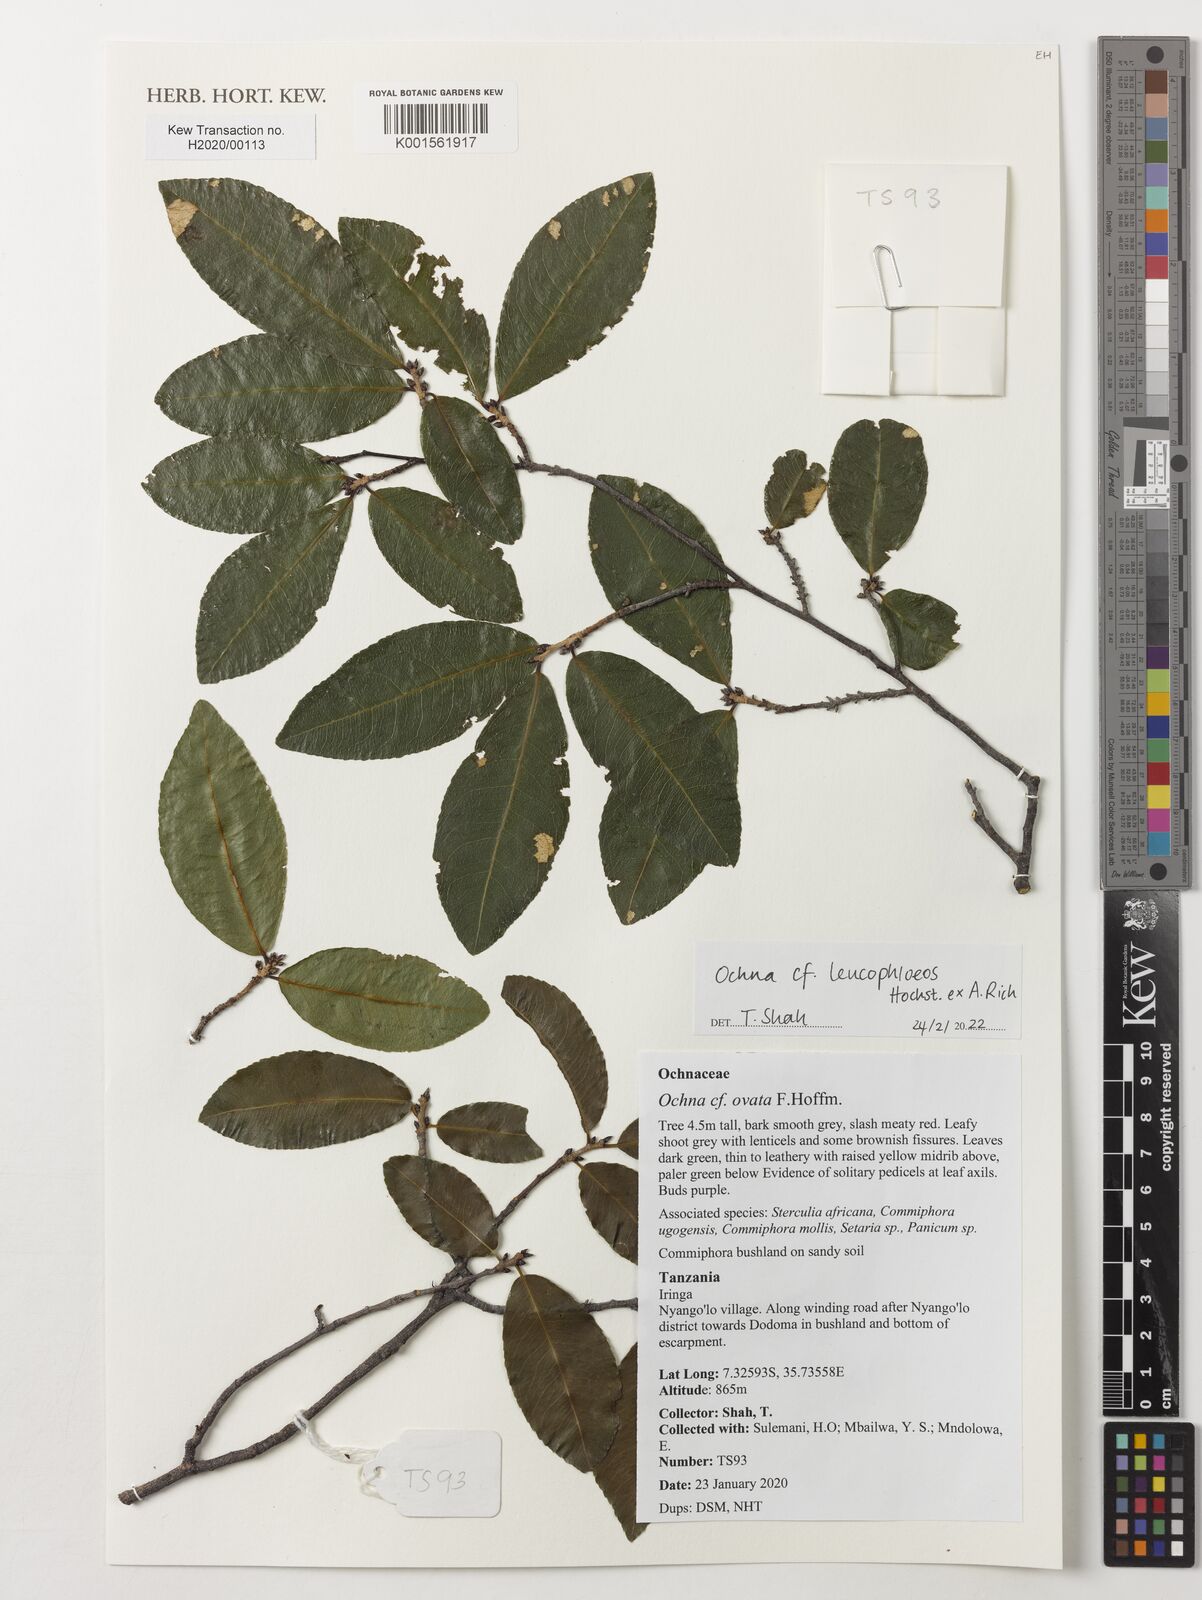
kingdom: Plantae
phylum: Tracheophyta
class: Magnoliopsida
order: Malpighiales
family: Ochnaceae
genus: Ochna
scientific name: Ochna ovata
